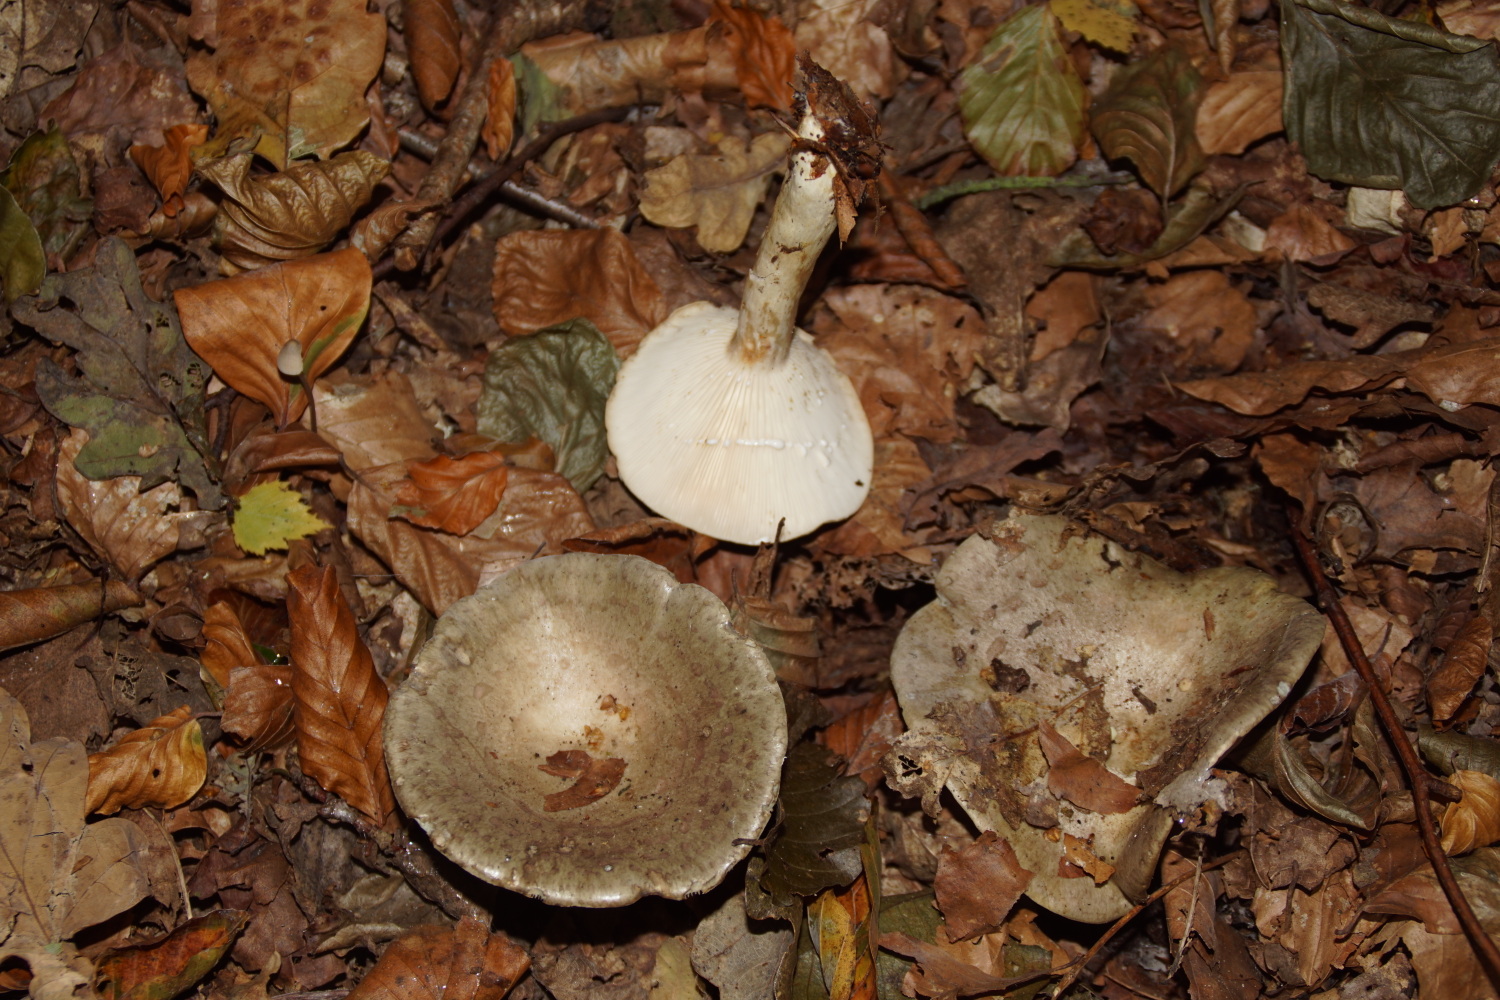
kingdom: Fungi
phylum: Basidiomycota
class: Agaricomycetes
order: Russulales
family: Russulaceae
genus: Lactarius
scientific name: Lactarius blennius
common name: dråbeplettet mælkehat
